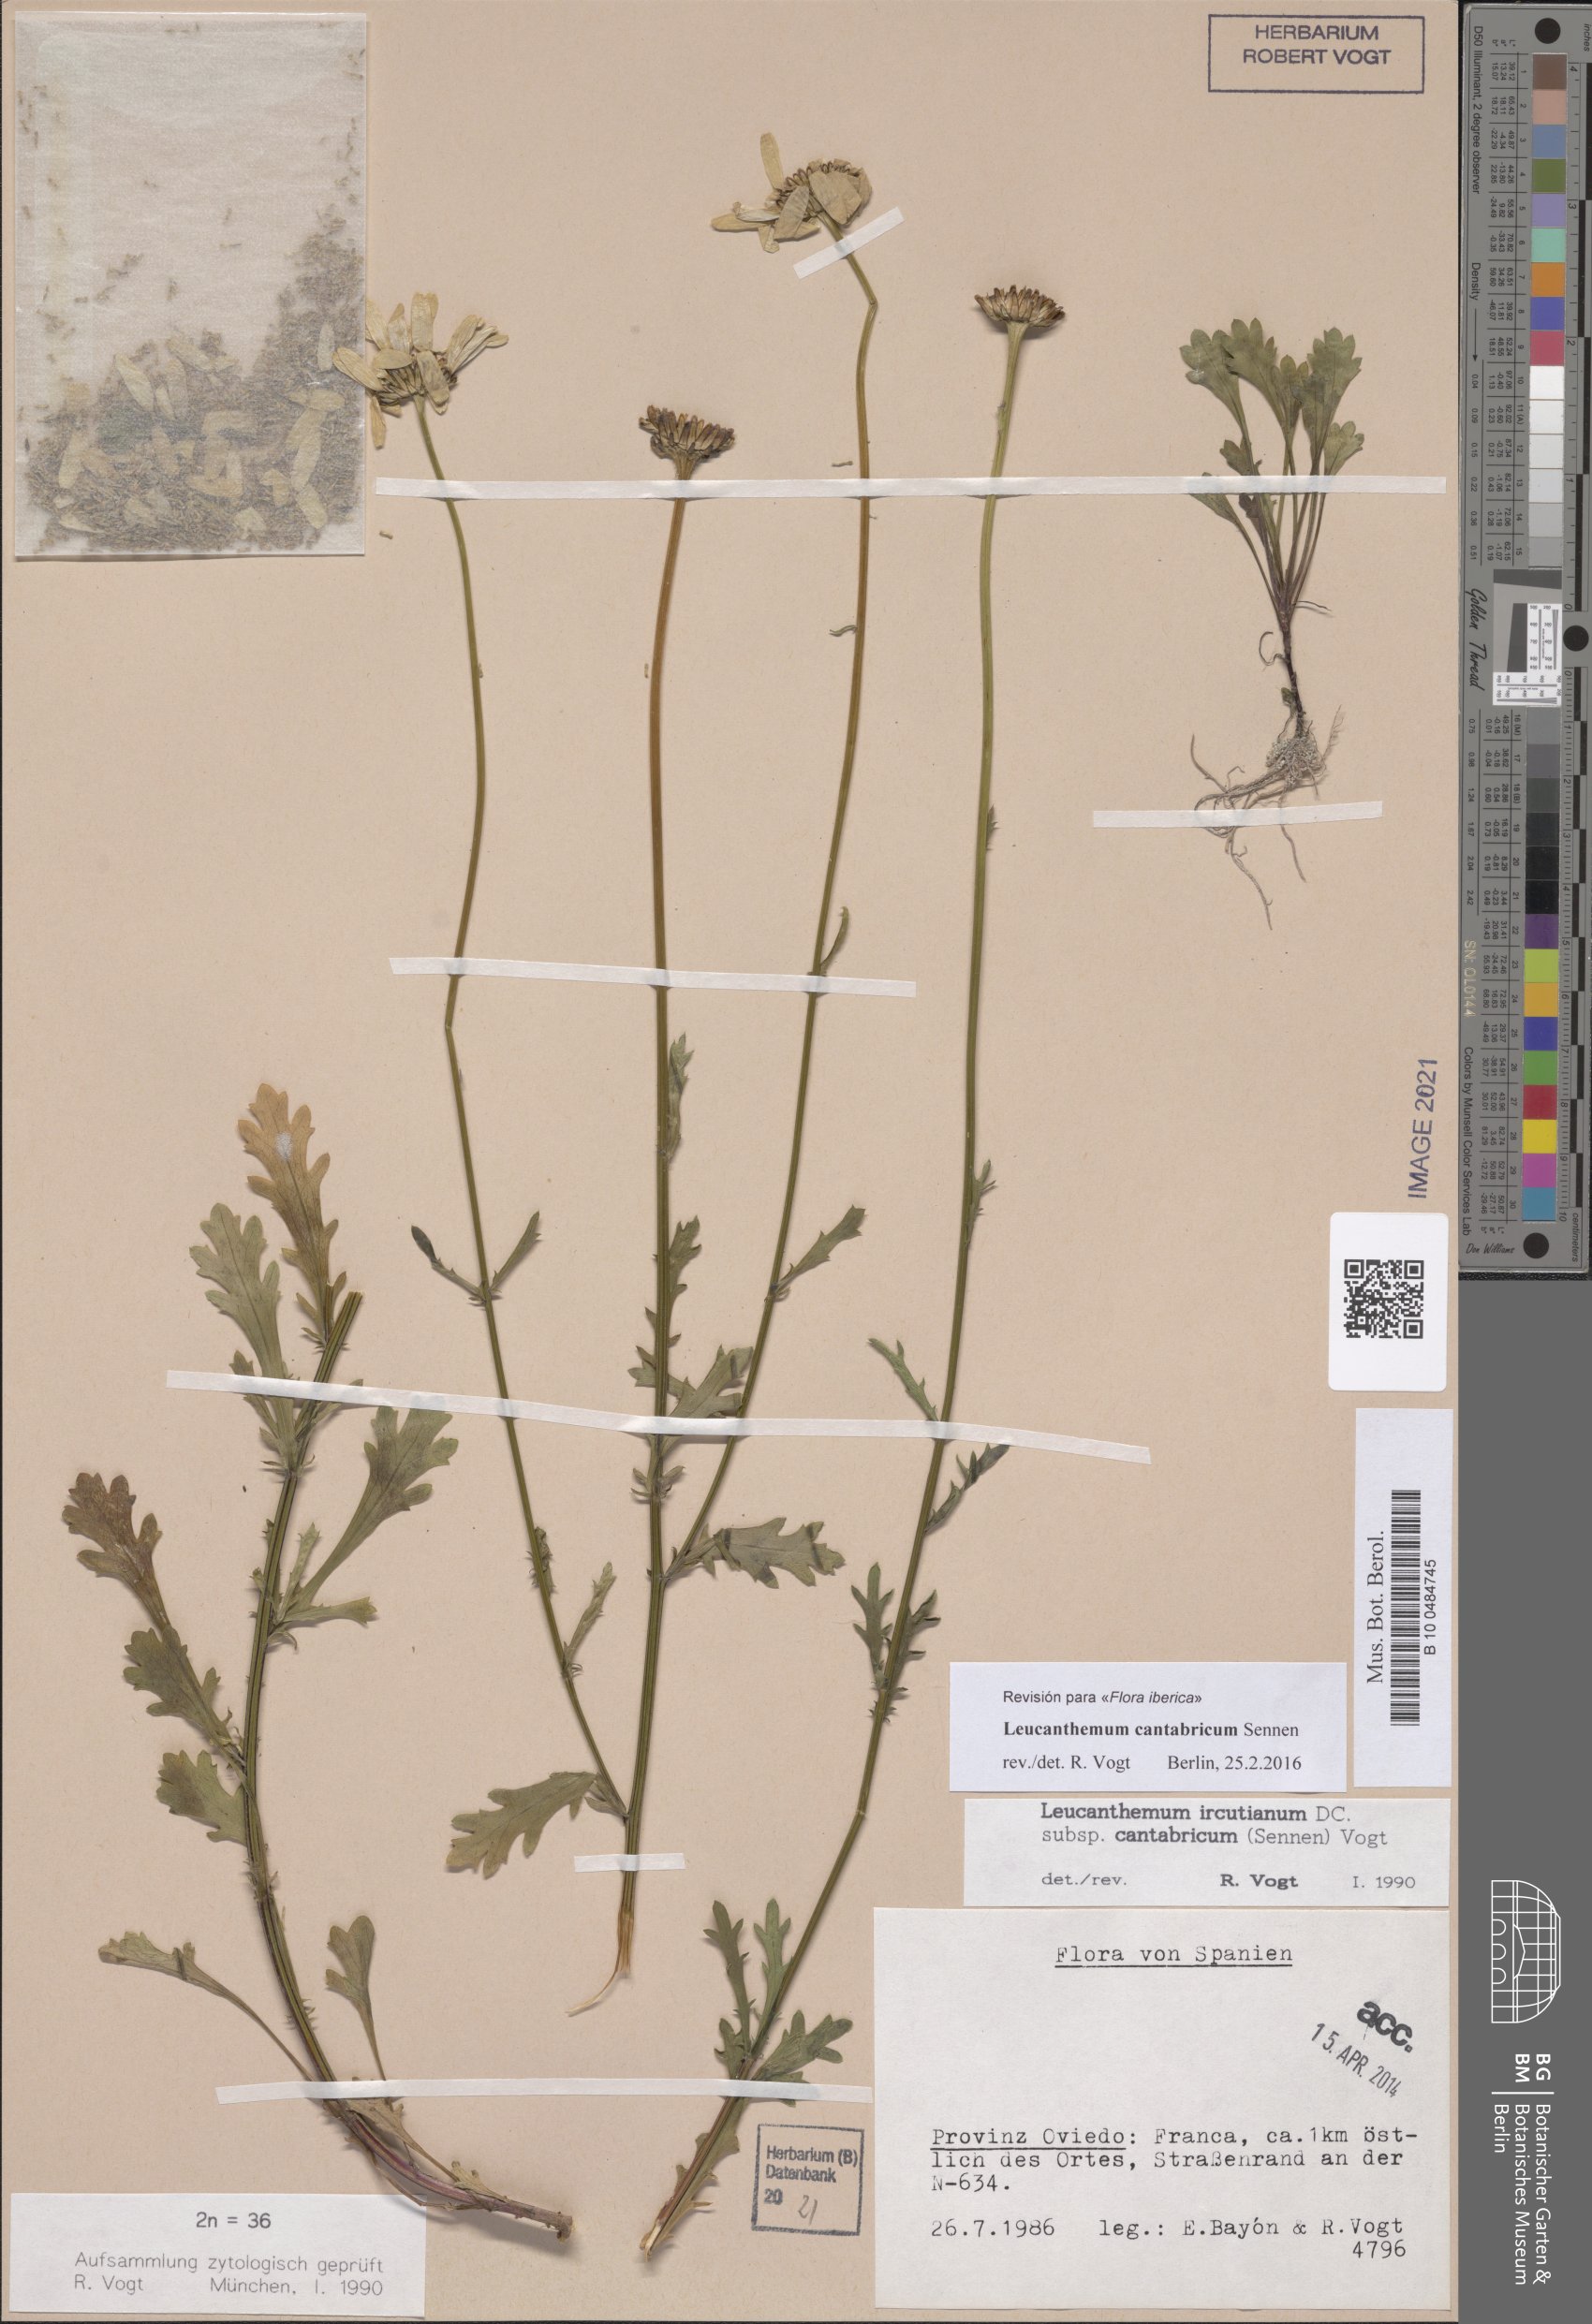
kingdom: Plantae
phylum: Tracheophyta
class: Magnoliopsida
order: Asterales
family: Asteraceae
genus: Leucanthemum
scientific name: Leucanthemum cantabricum
